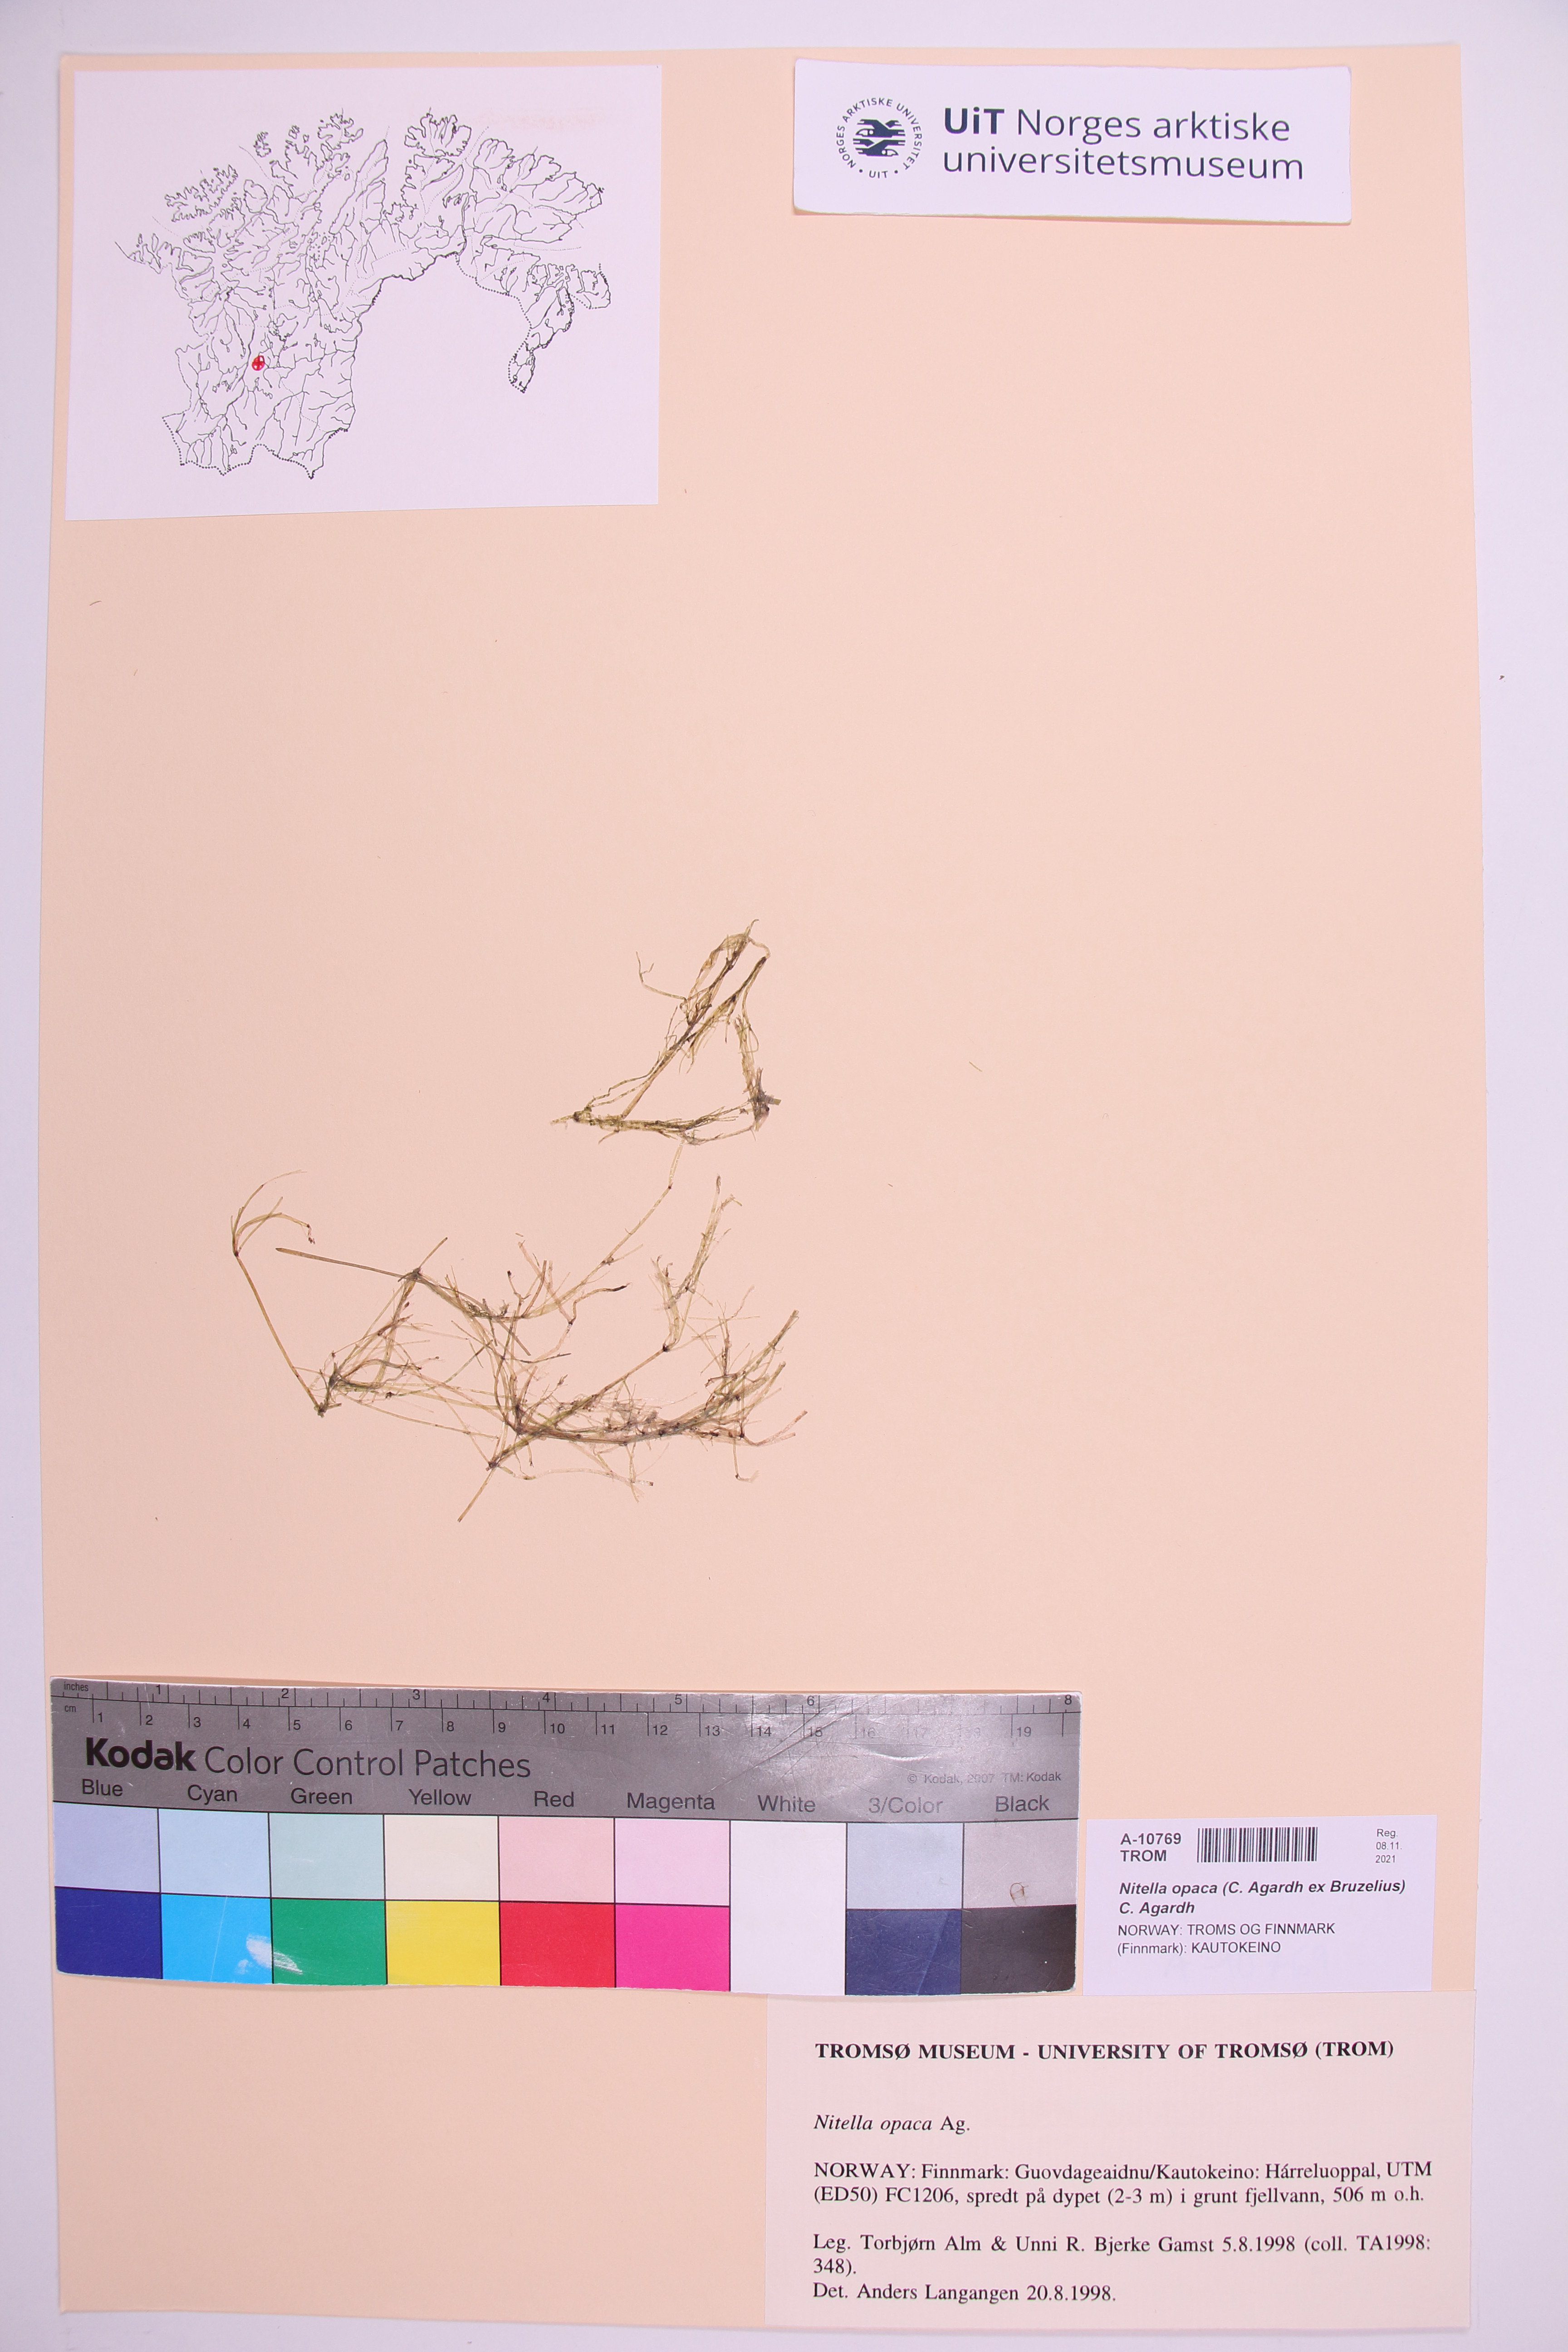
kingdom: Plantae
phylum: Charophyta
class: Charophyceae
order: Charales
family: Characeae
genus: Nitella
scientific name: Nitella opaca
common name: Dark stonewort
